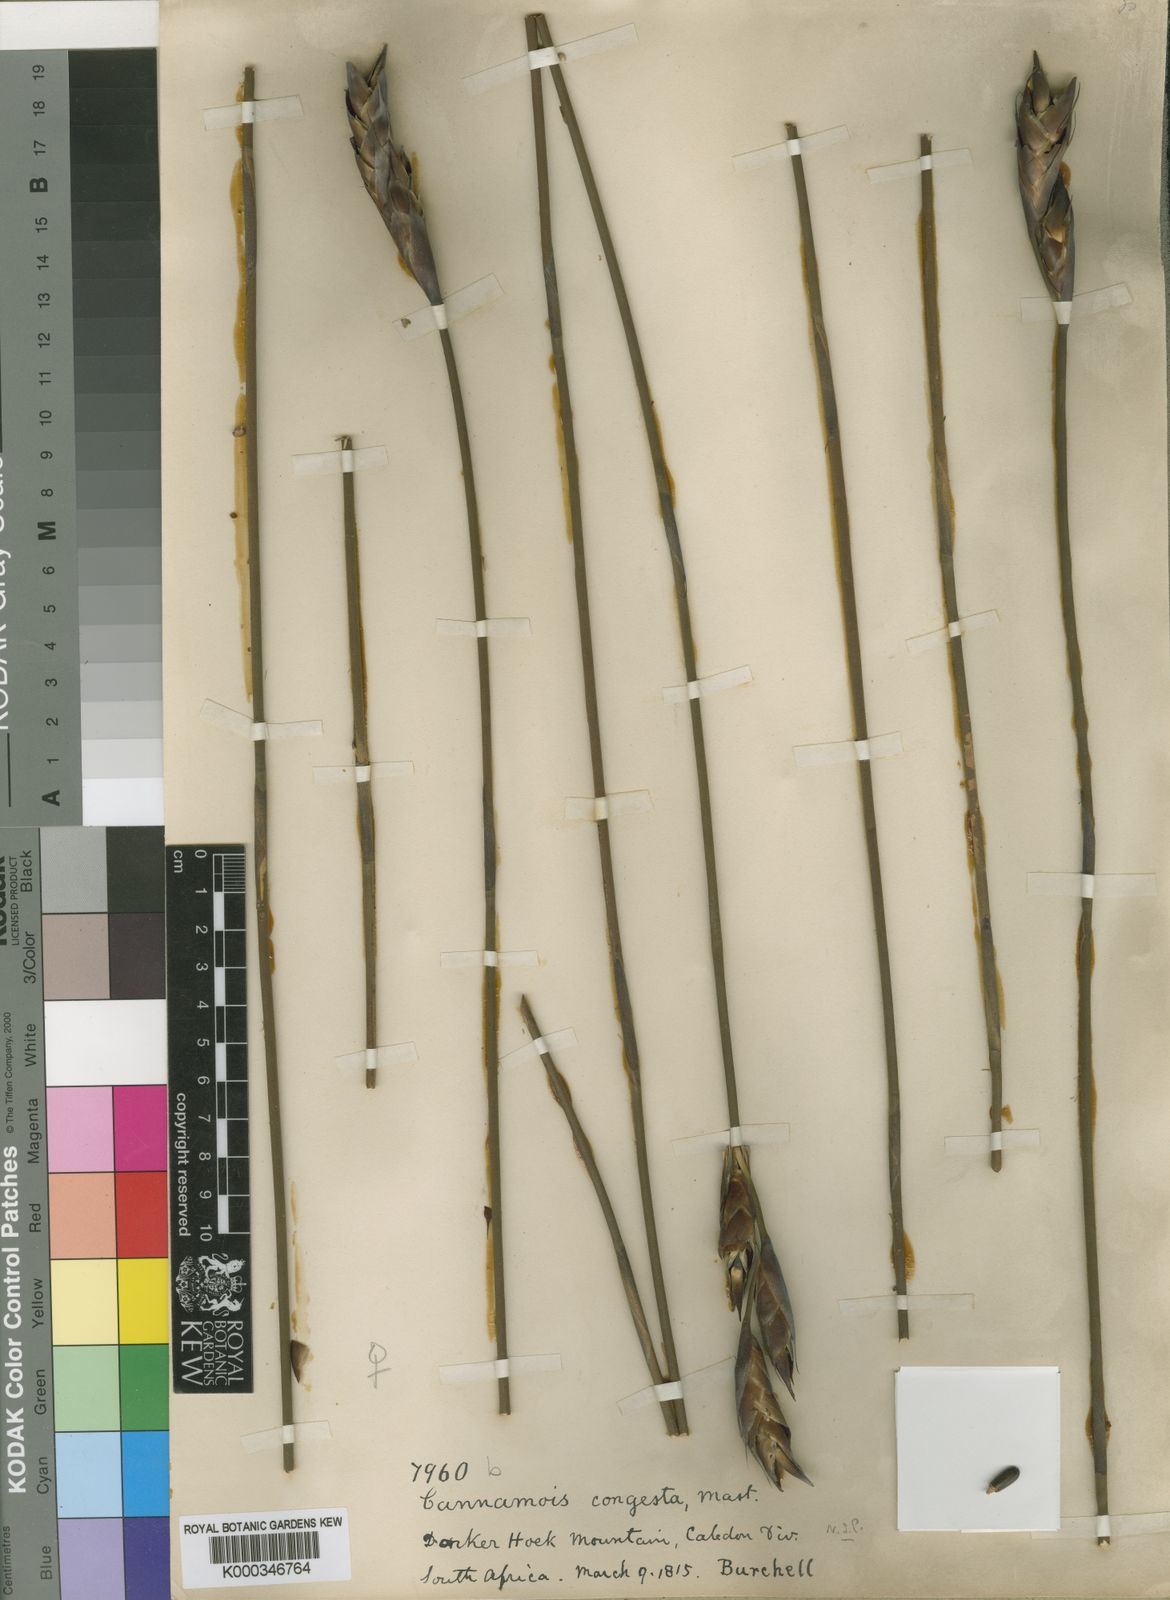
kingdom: Plantae
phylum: Tracheophyta
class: Liliopsida
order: Poales
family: Restionaceae
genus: Cannomois
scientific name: Cannomois congesta
